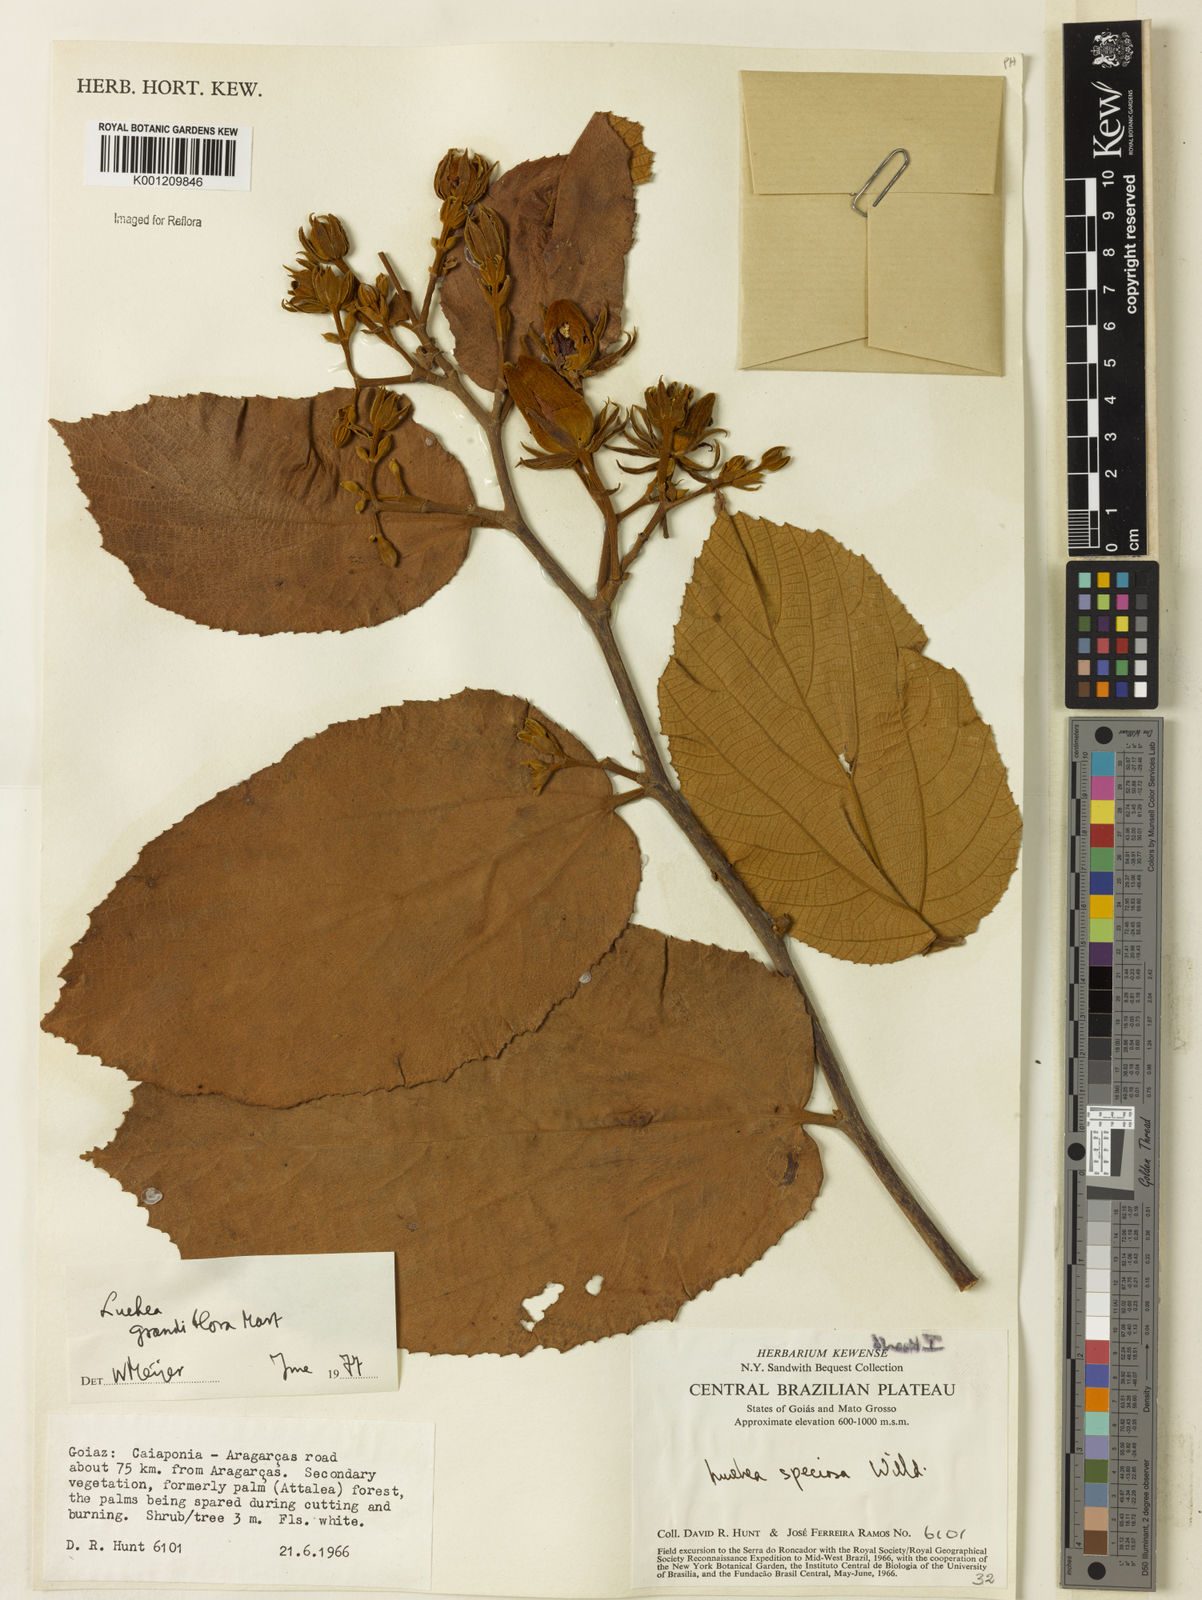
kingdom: Plantae
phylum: Tracheophyta
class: Magnoliopsida
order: Malvales
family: Malvaceae
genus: Luehea
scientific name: Luehea grandiflora
